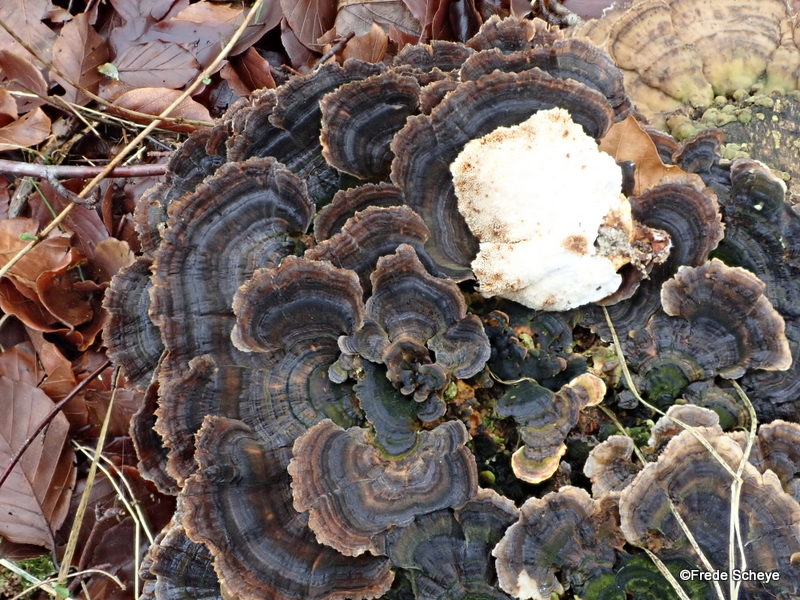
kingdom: Fungi
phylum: Basidiomycota
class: Agaricomycetes
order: Polyporales
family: Polyporaceae
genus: Trametes
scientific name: Trametes versicolor
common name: broget læderporesvamp
